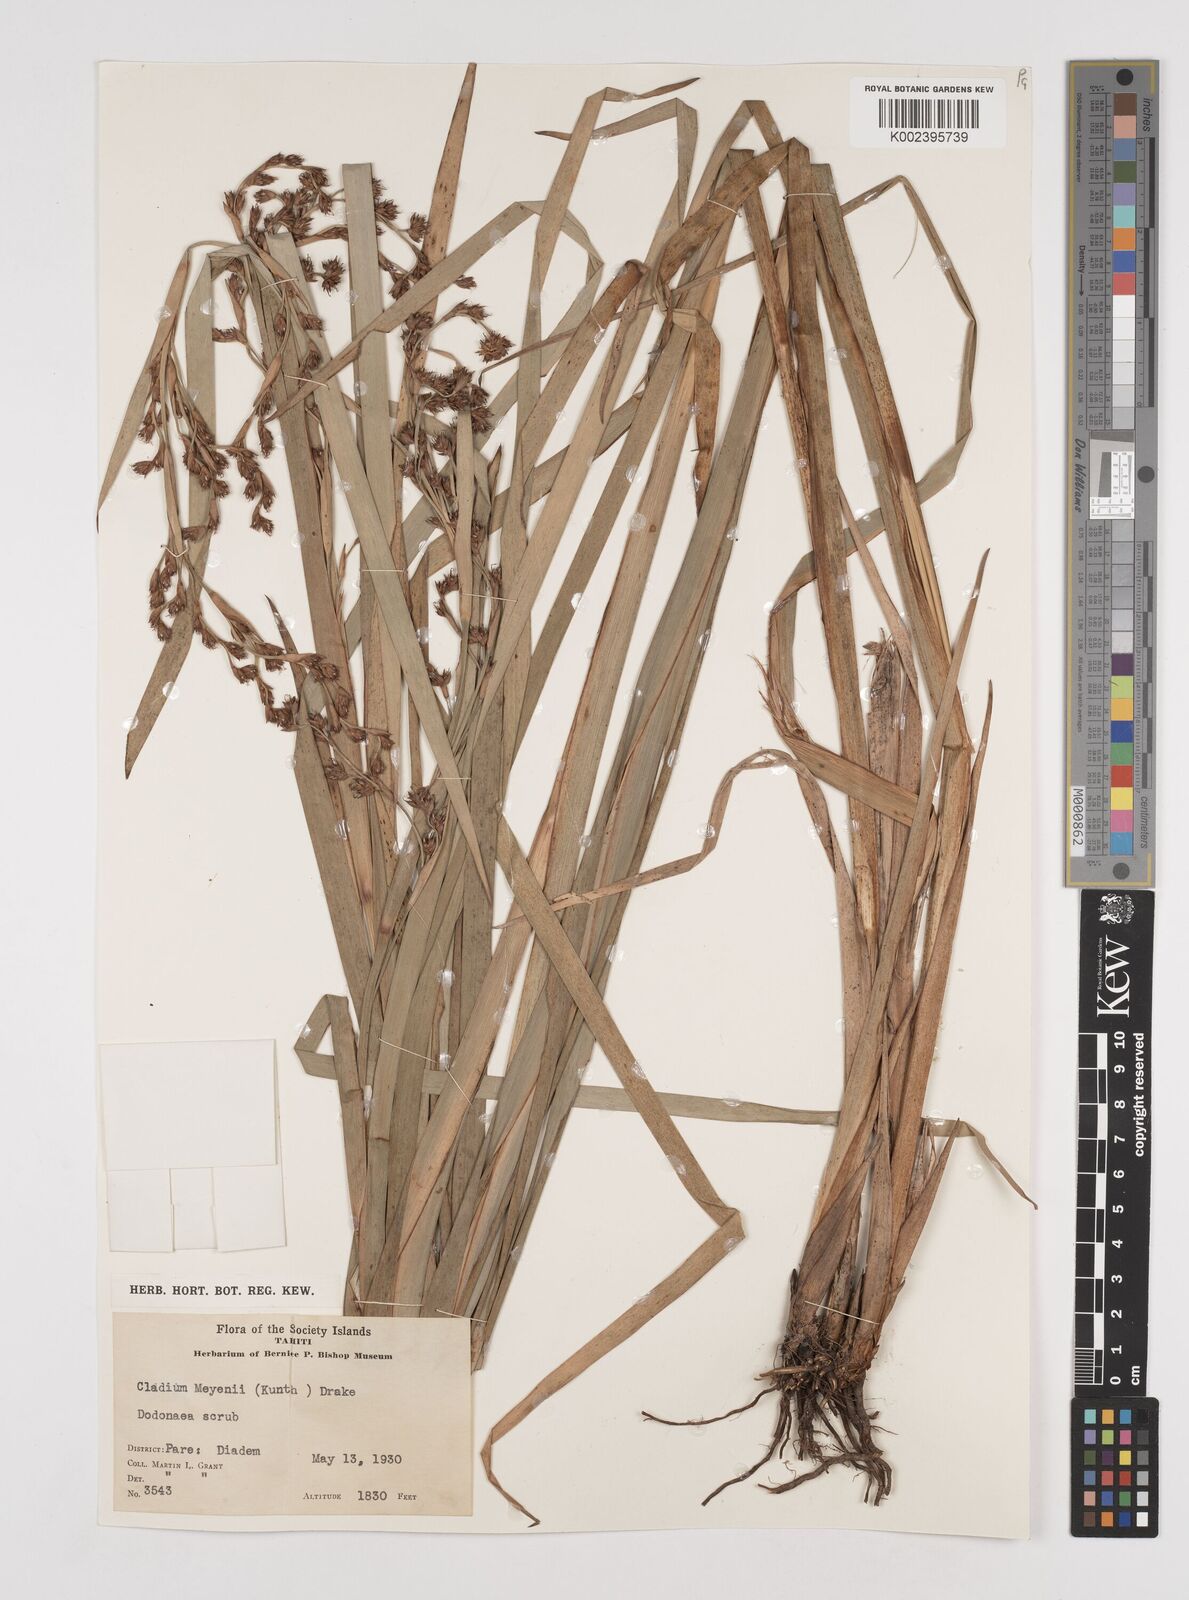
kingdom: Plantae
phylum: Tracheophyta
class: Liliopsida
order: Poales
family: Cyperaceae
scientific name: Cyperaceae
